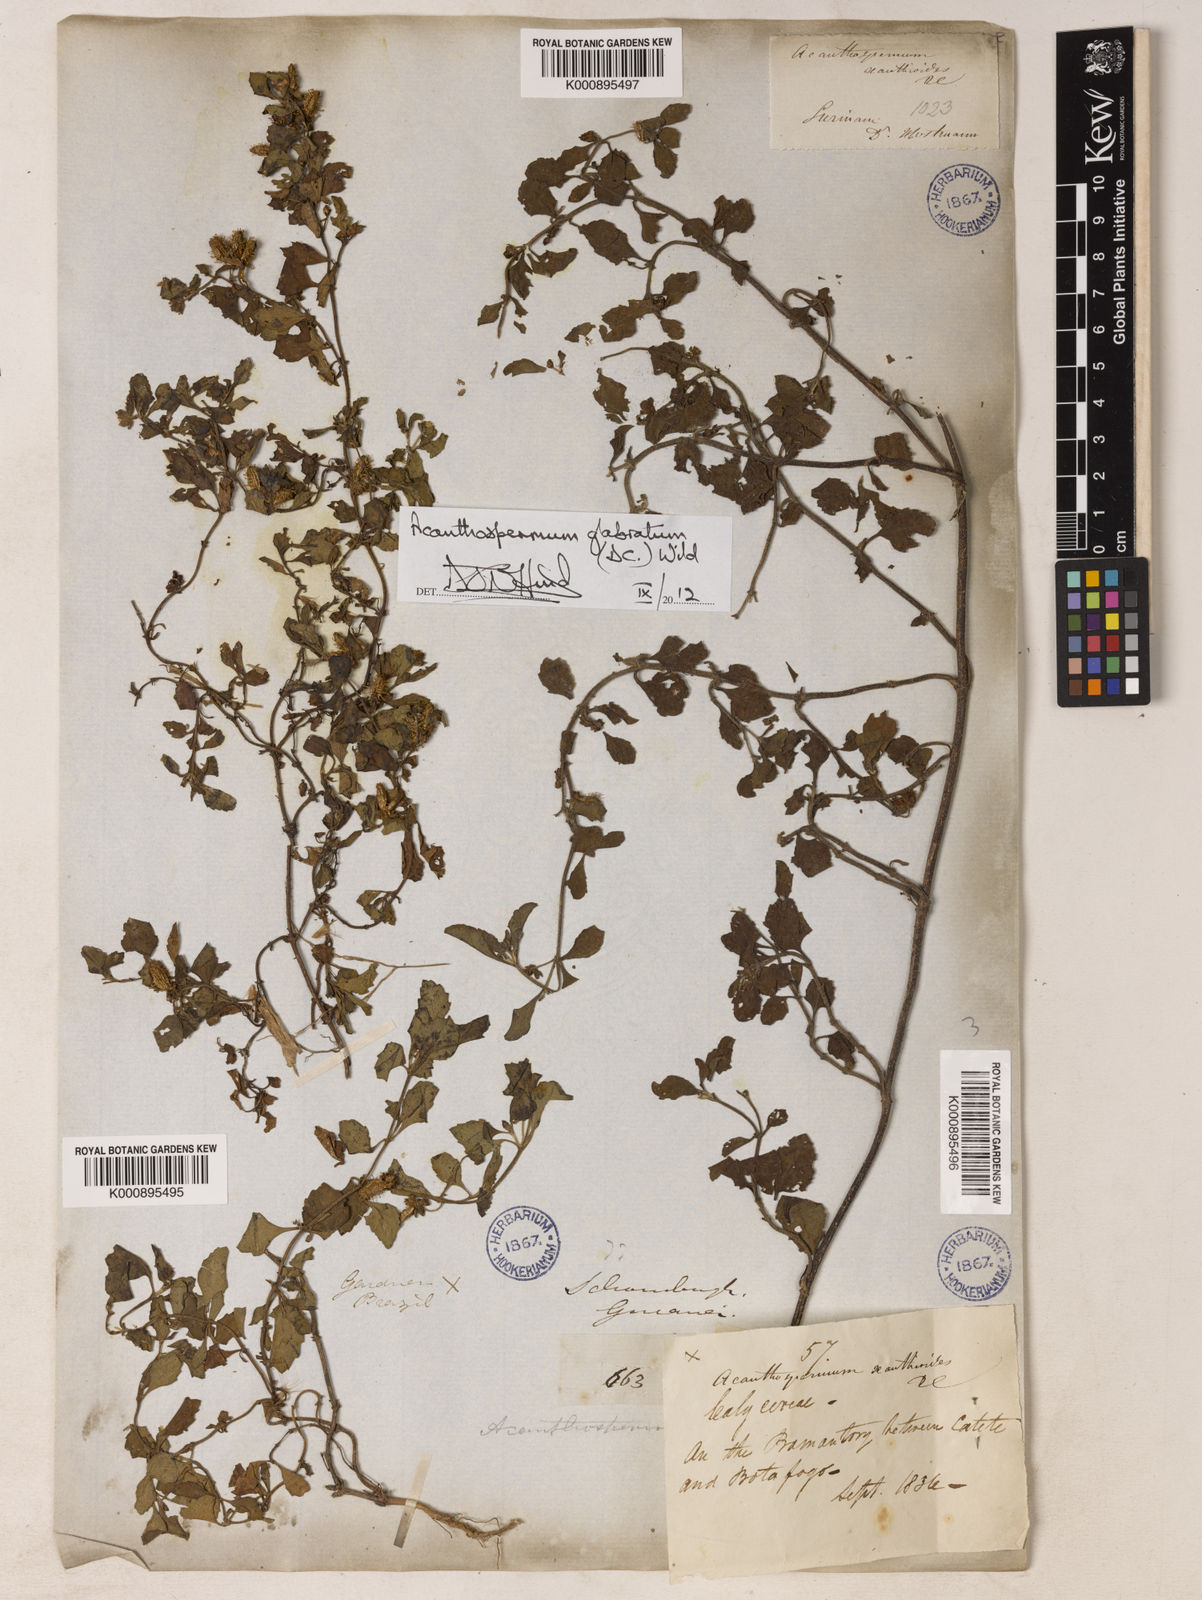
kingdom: Plantae
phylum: Tracheophyta
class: Magnoliopsida
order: Asterales
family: Asteraceae
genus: Acanthospermum
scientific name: Acanthospermum glabratum
